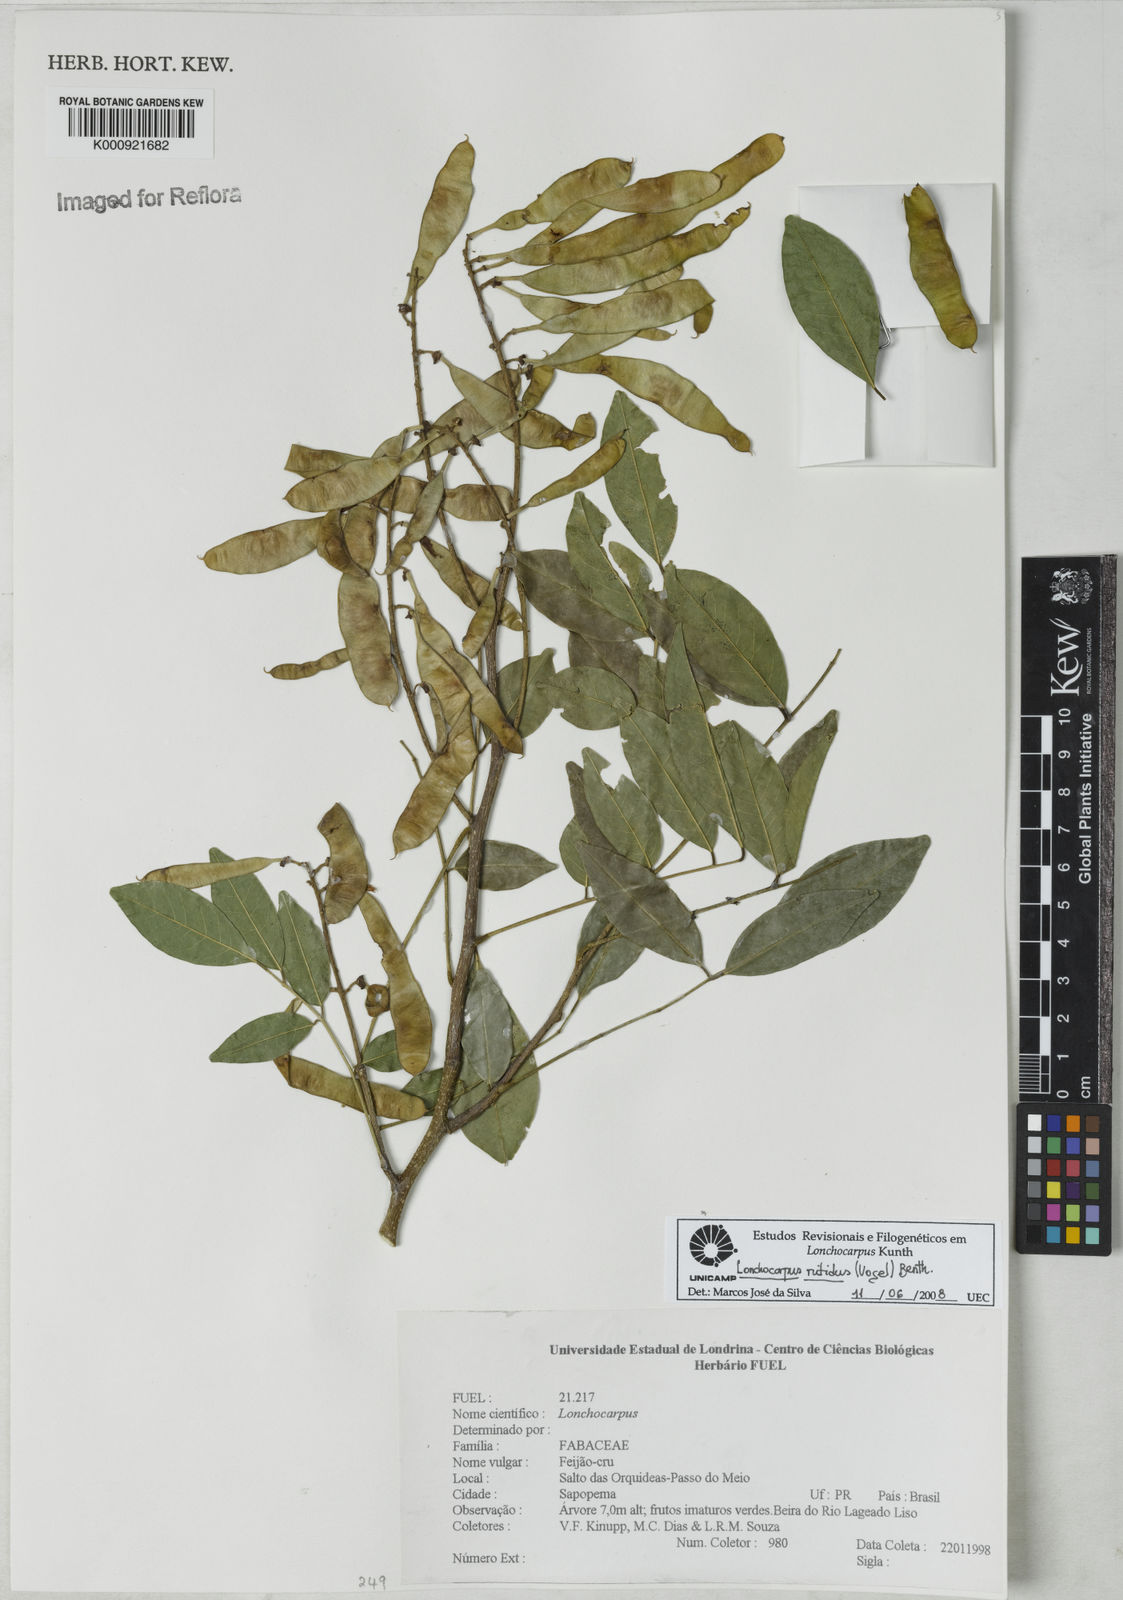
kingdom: Plantae
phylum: Tracheophyta
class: Magnoliopsida
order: Fabales
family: Fabaceae
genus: Lonchocarpus
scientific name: Lonchocarpus nitidus
